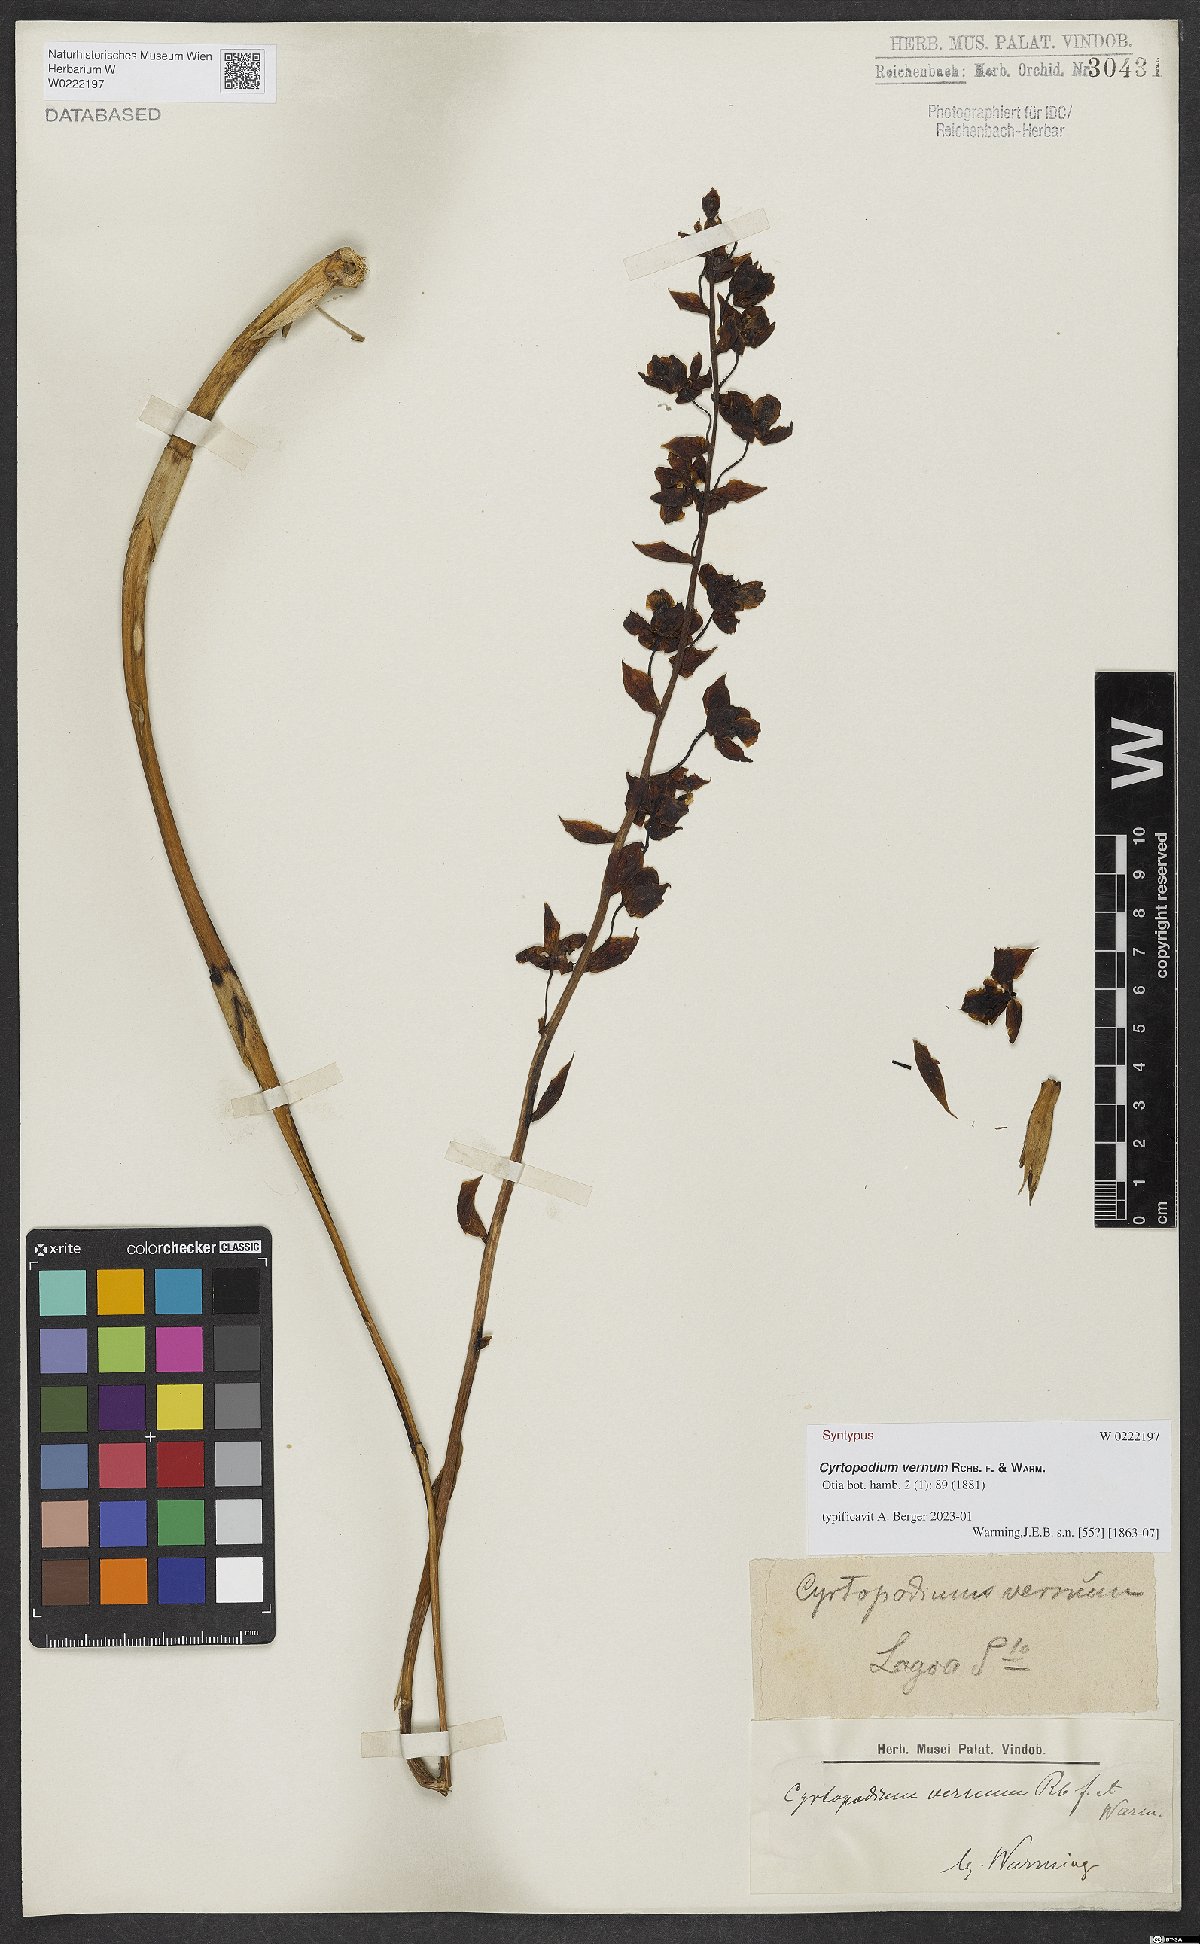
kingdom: Plantae
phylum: Tracheophyta
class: Liliopsida
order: Asparagales
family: Orchidaceae
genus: Cyrtopodium
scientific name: Cyrtopodium vernum
